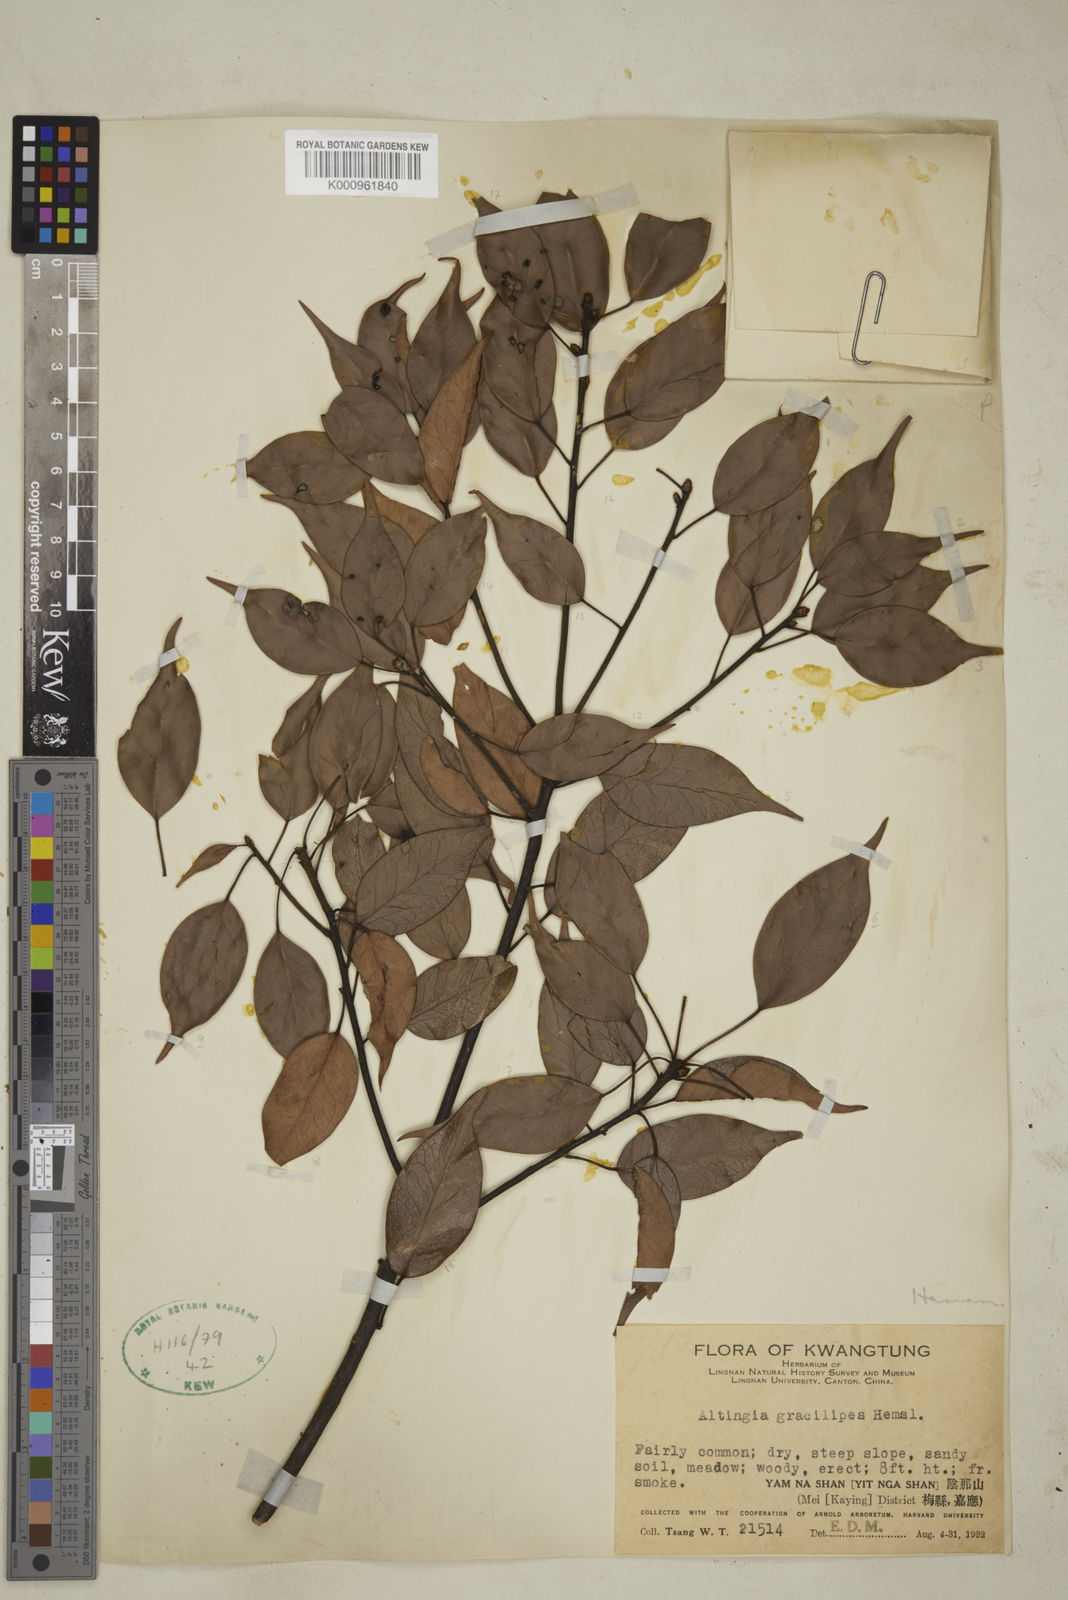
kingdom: Plantae
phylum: Tracheophyta
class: Magnoliopsida
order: Saxifragales
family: Altingiaceae
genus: Liquidambar
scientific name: Liquidambar gracilipes
